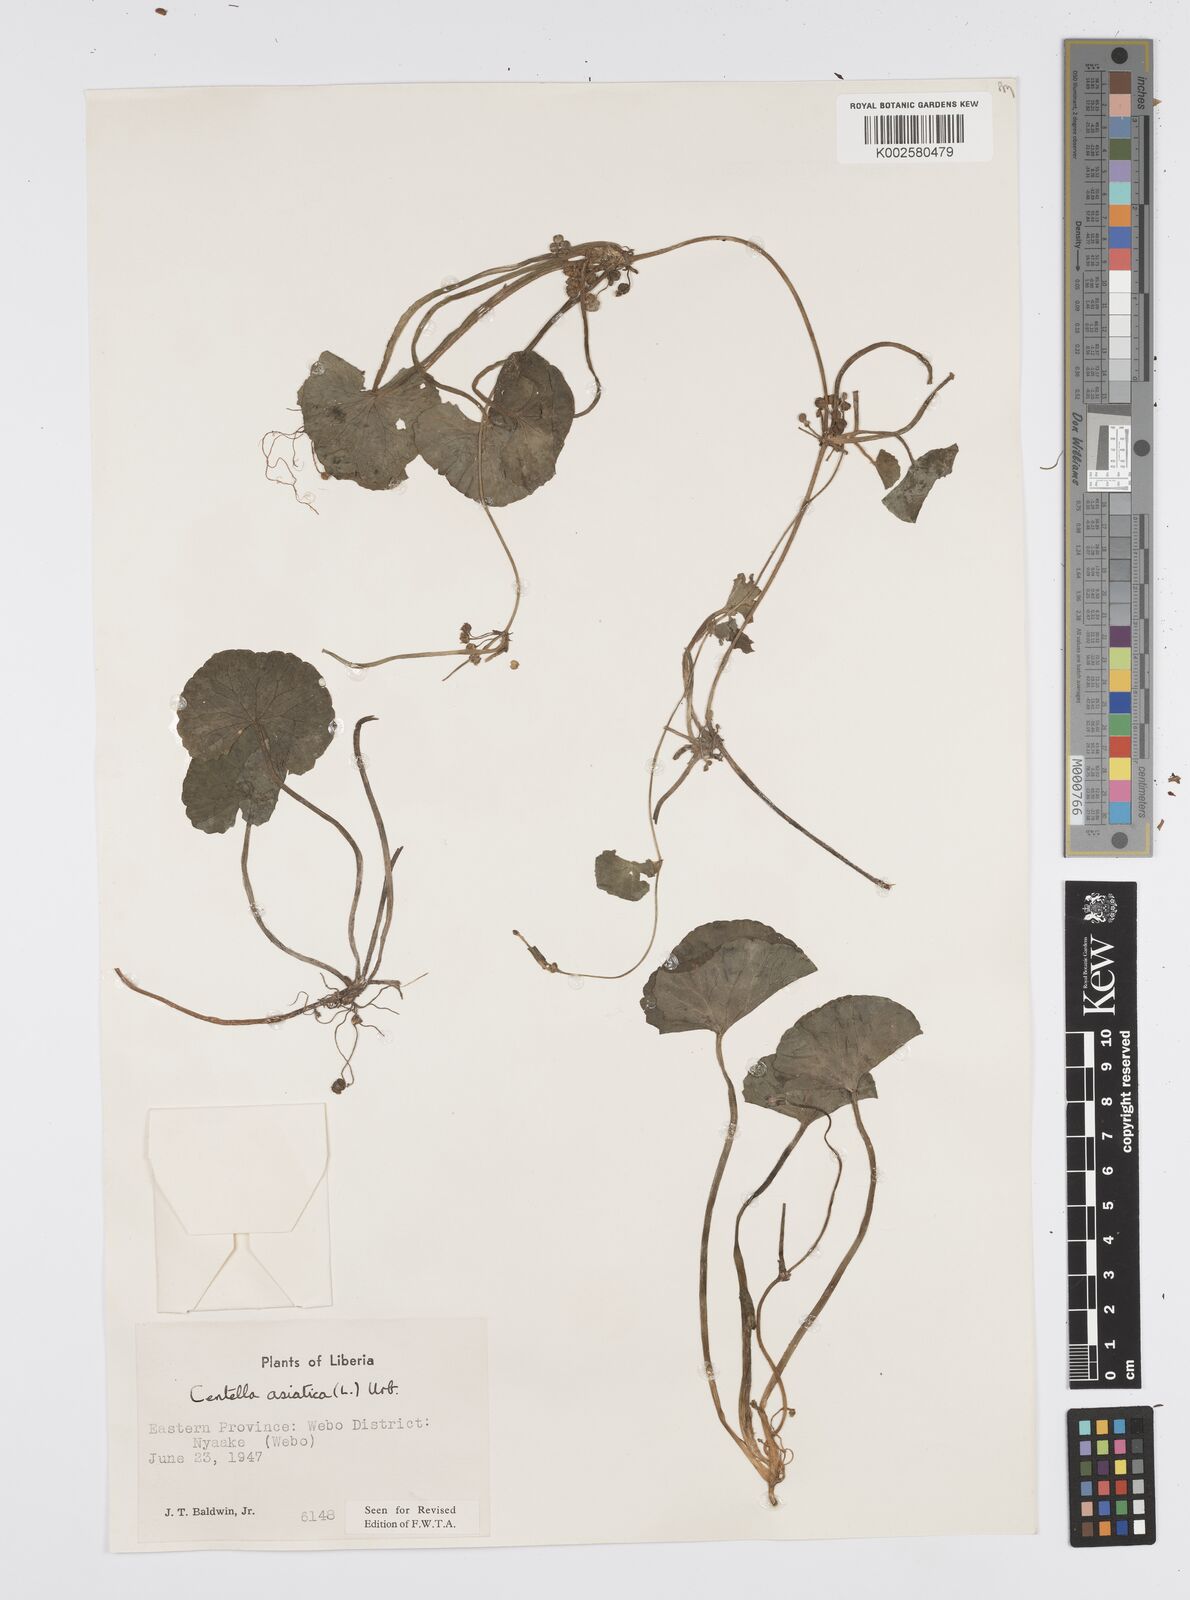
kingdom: Plantae
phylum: Tracheophyta
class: Magnoliopsida
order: Apiales
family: Apiaceae
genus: Centella
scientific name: Centella asiatica
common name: Spadeleaf
